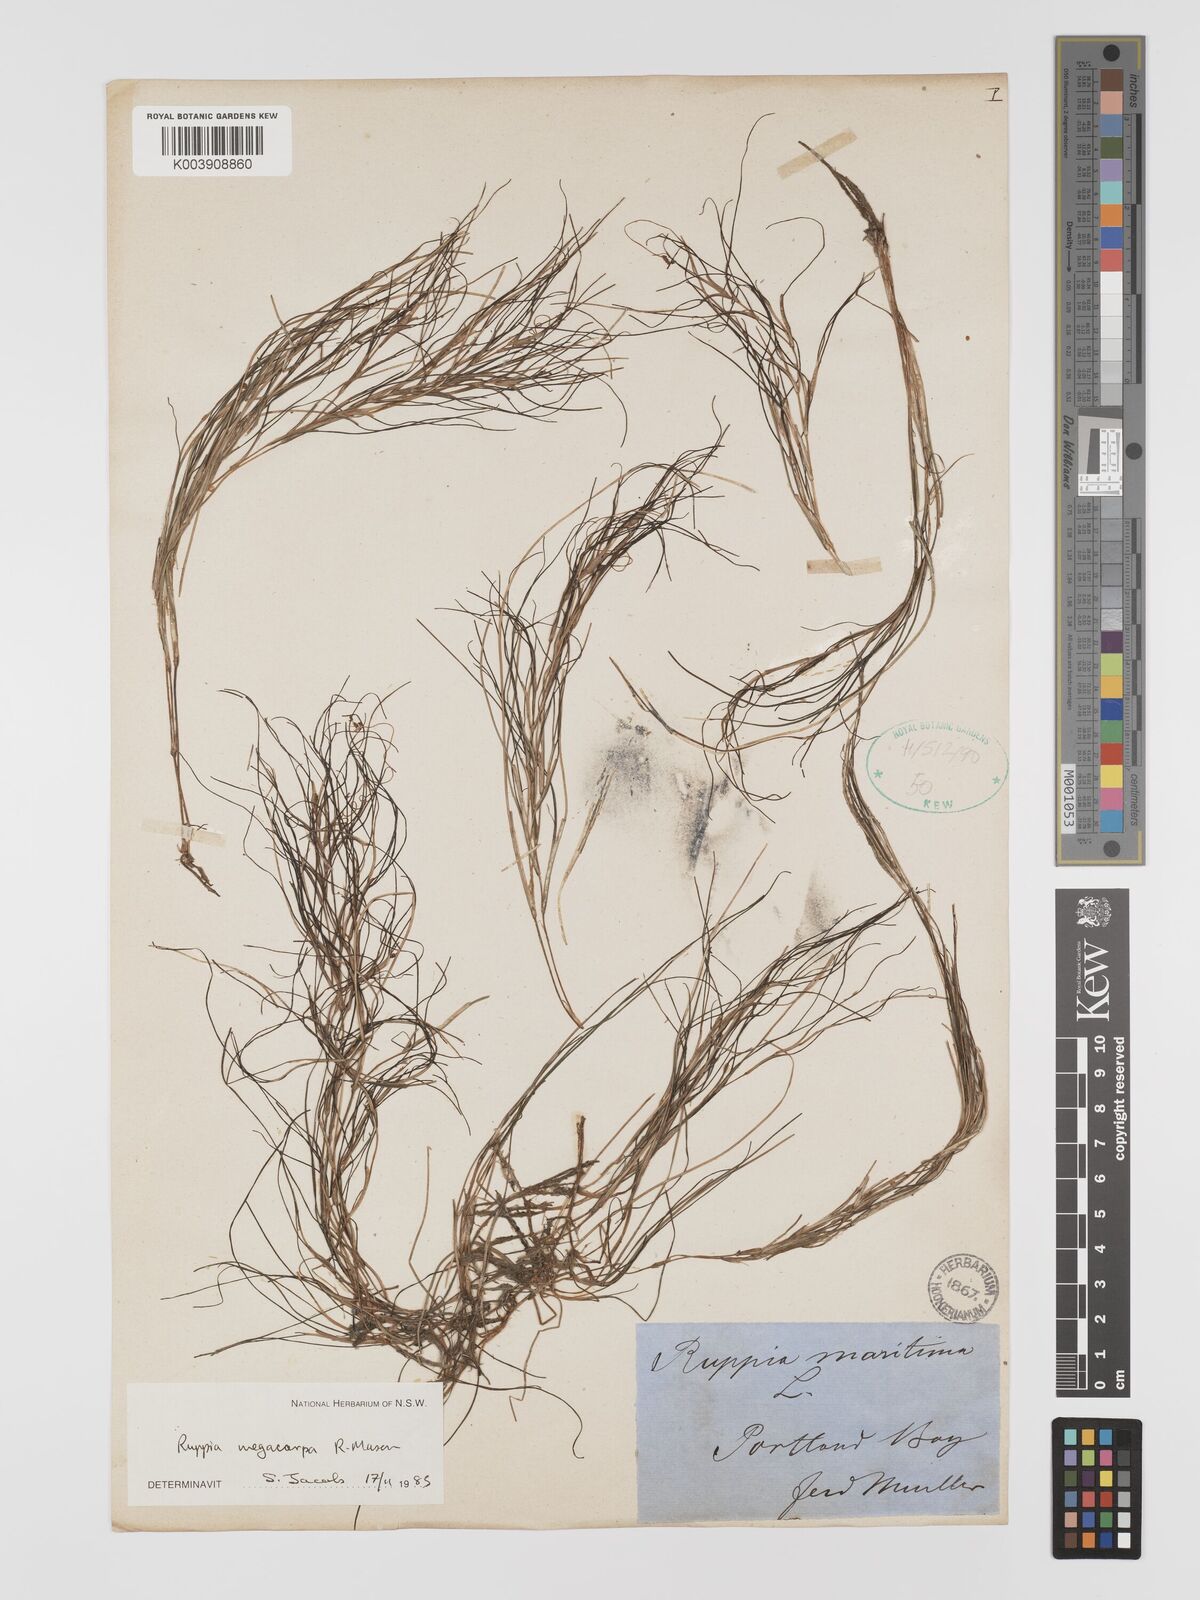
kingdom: Plantae
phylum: Tracheophyta
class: Liliopsida
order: Alismatales
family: Ruppiaceae
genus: Ruppia
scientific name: Ruppia megacarpa
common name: Large-fruit seatassel
